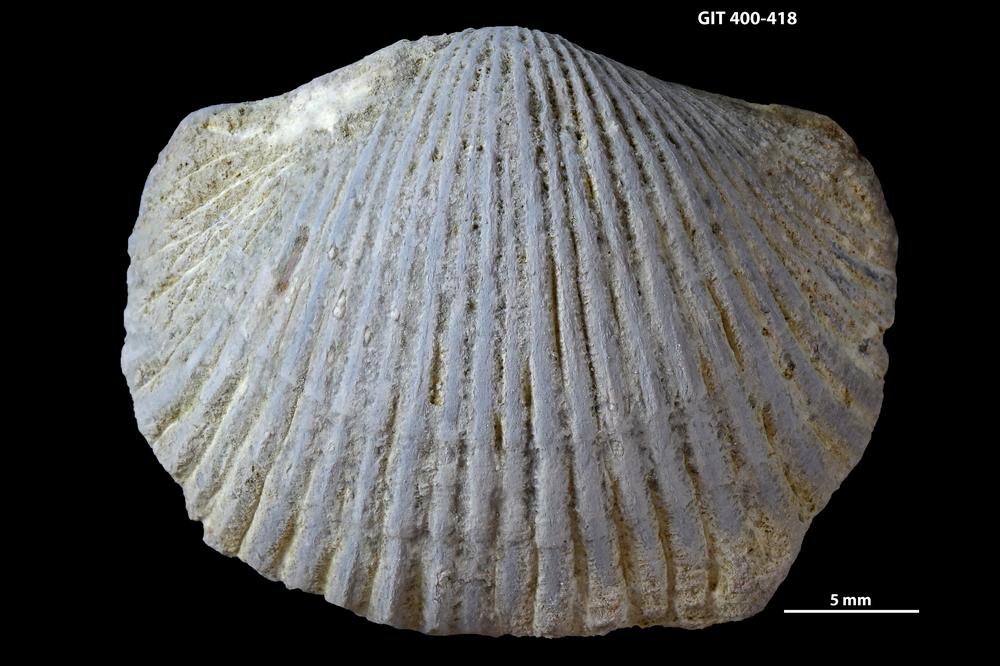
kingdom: Animalia
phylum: Brachiopoda
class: Rhynchonellata
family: Orthidae
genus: Cyrtonotella
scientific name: Cyrtonotella
